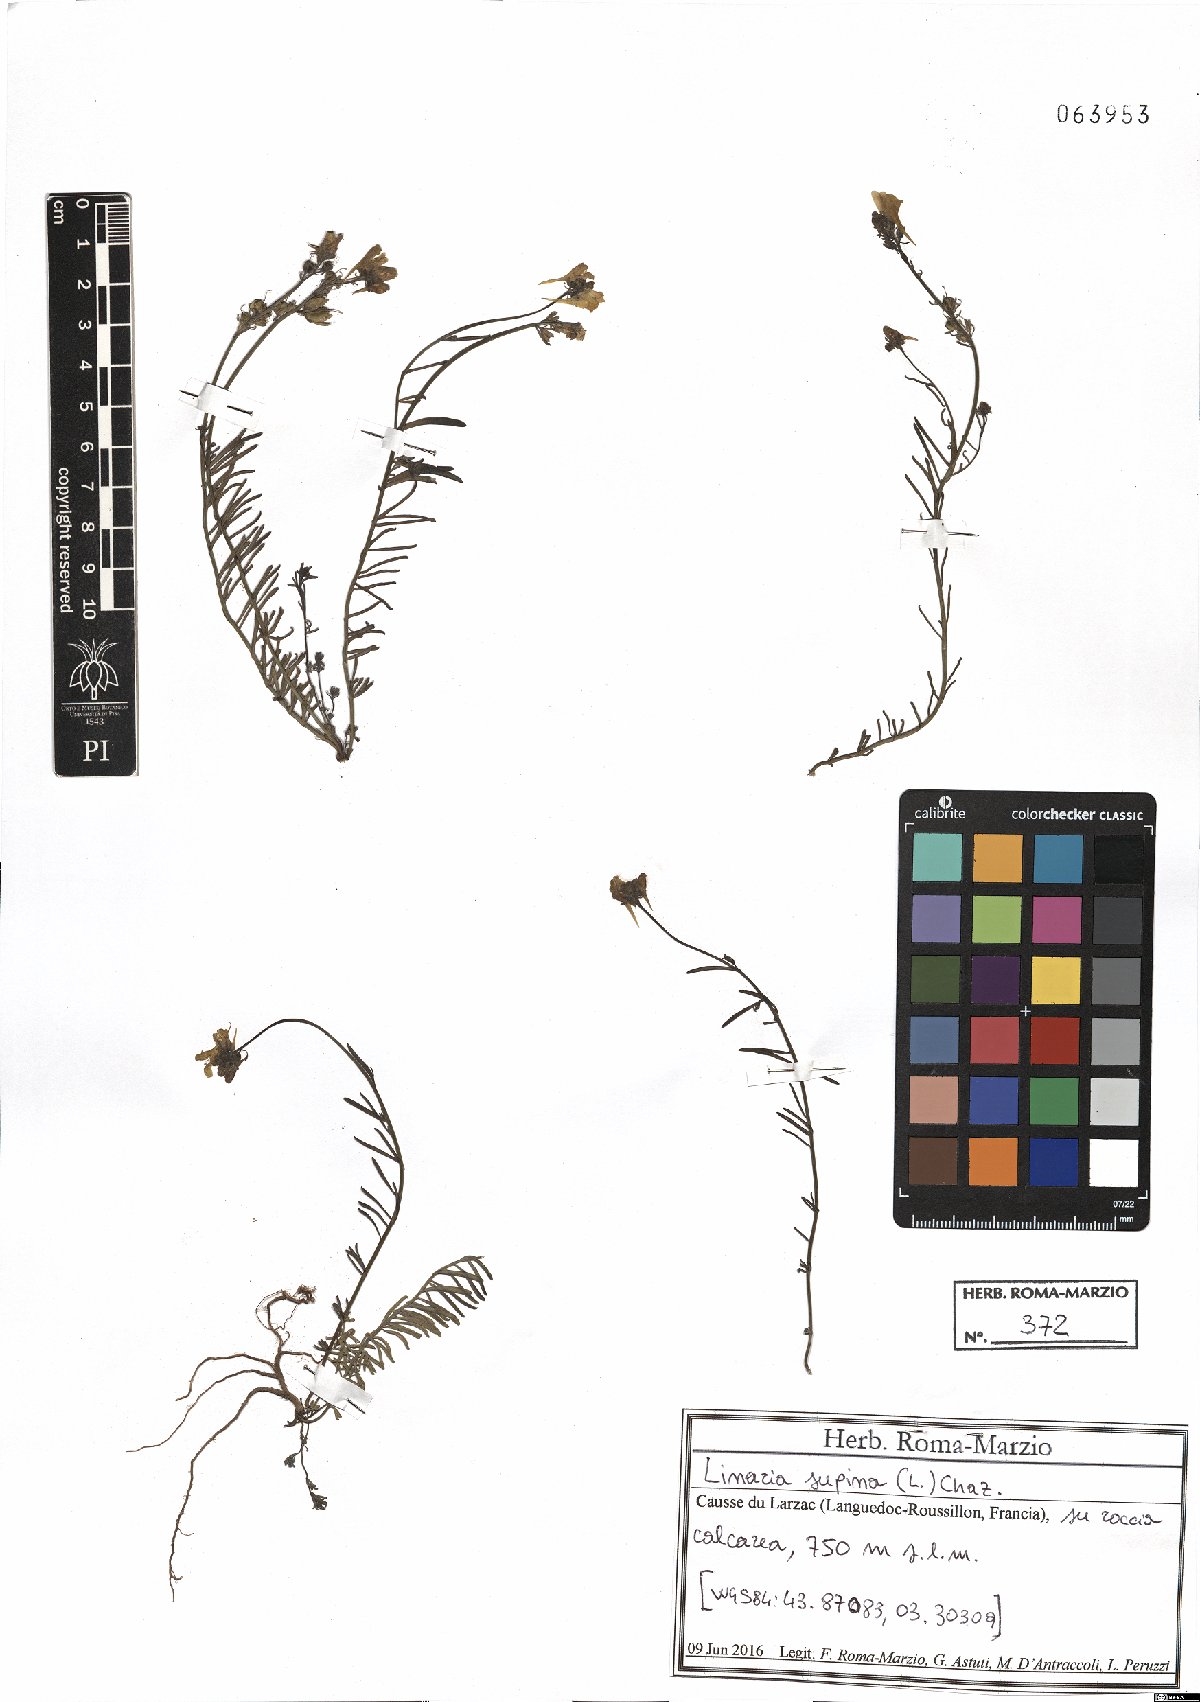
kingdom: Plantae
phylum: Tracheophyta
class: Magnoliopsida
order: Lamiales
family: Plantaginaceae
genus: Linaria
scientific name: Linaria supina
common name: Prostrate toadflax
